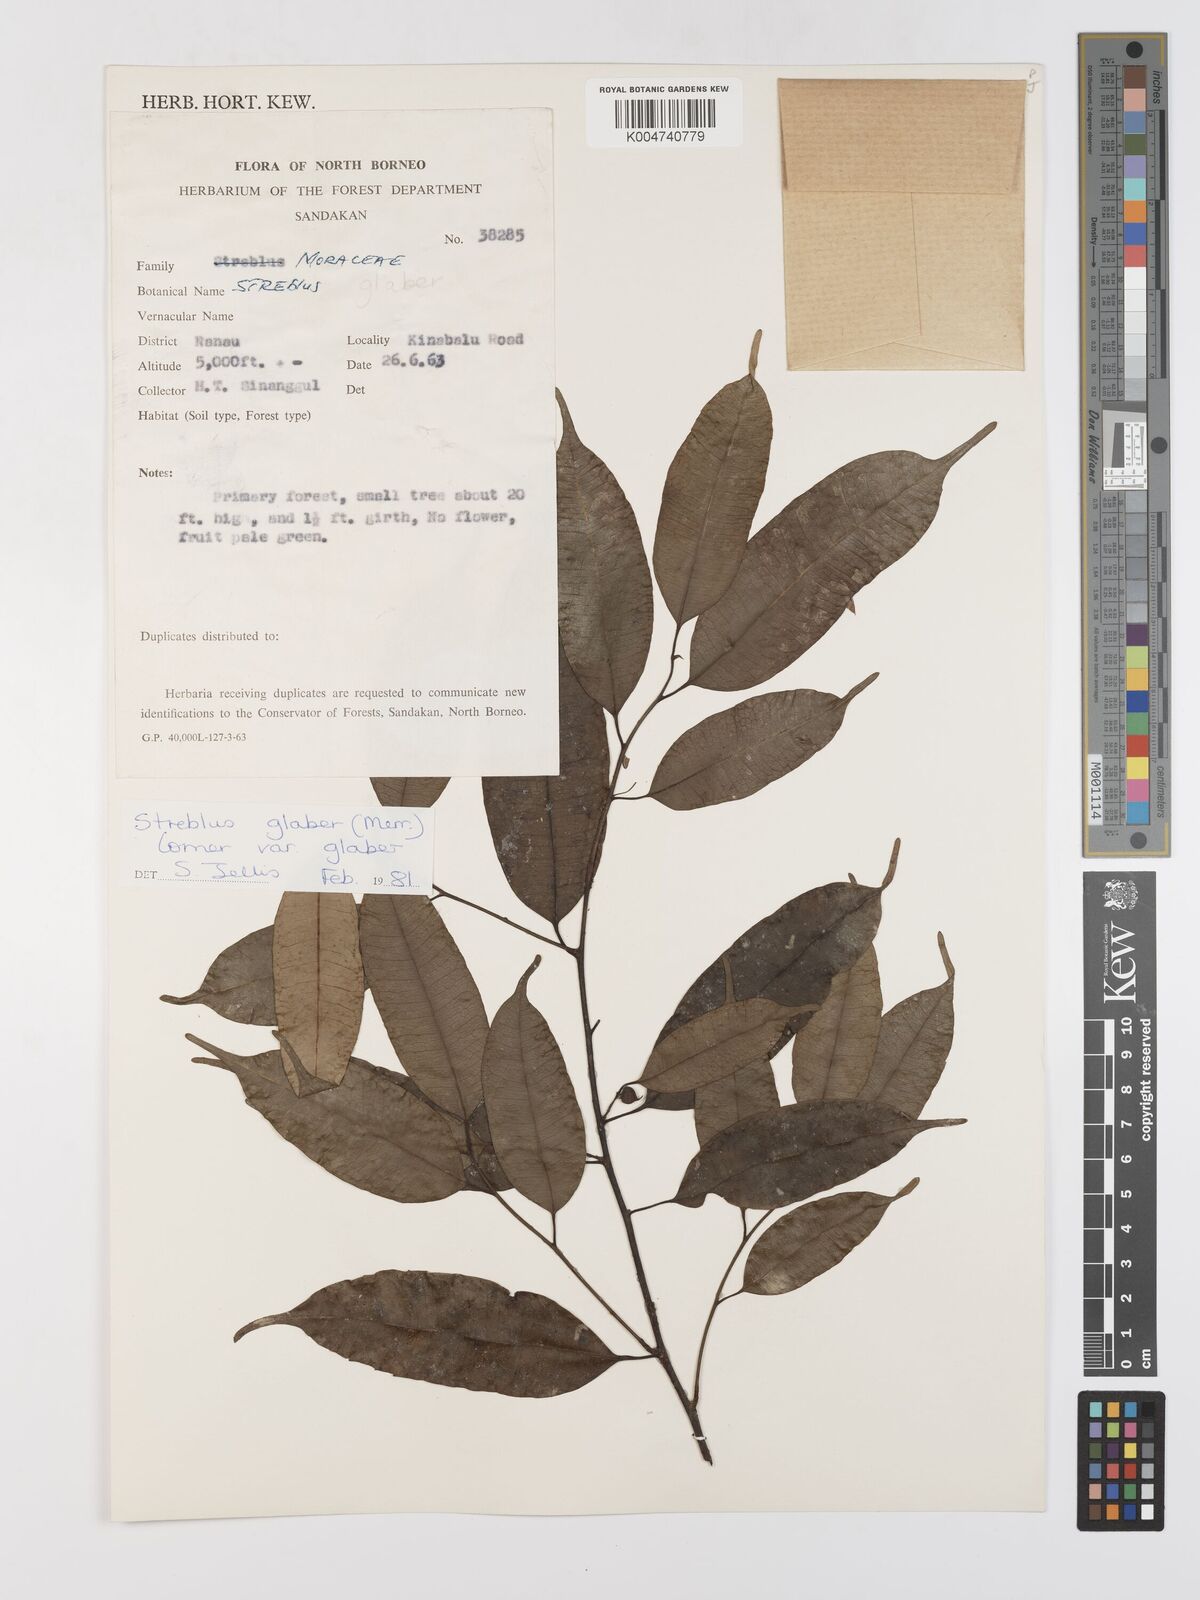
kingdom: Plantae
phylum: Tracheophyta
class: Magnoliopsida
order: Rosales
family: Moraceae
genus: Paratrophis
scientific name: Paratrophis glabra
